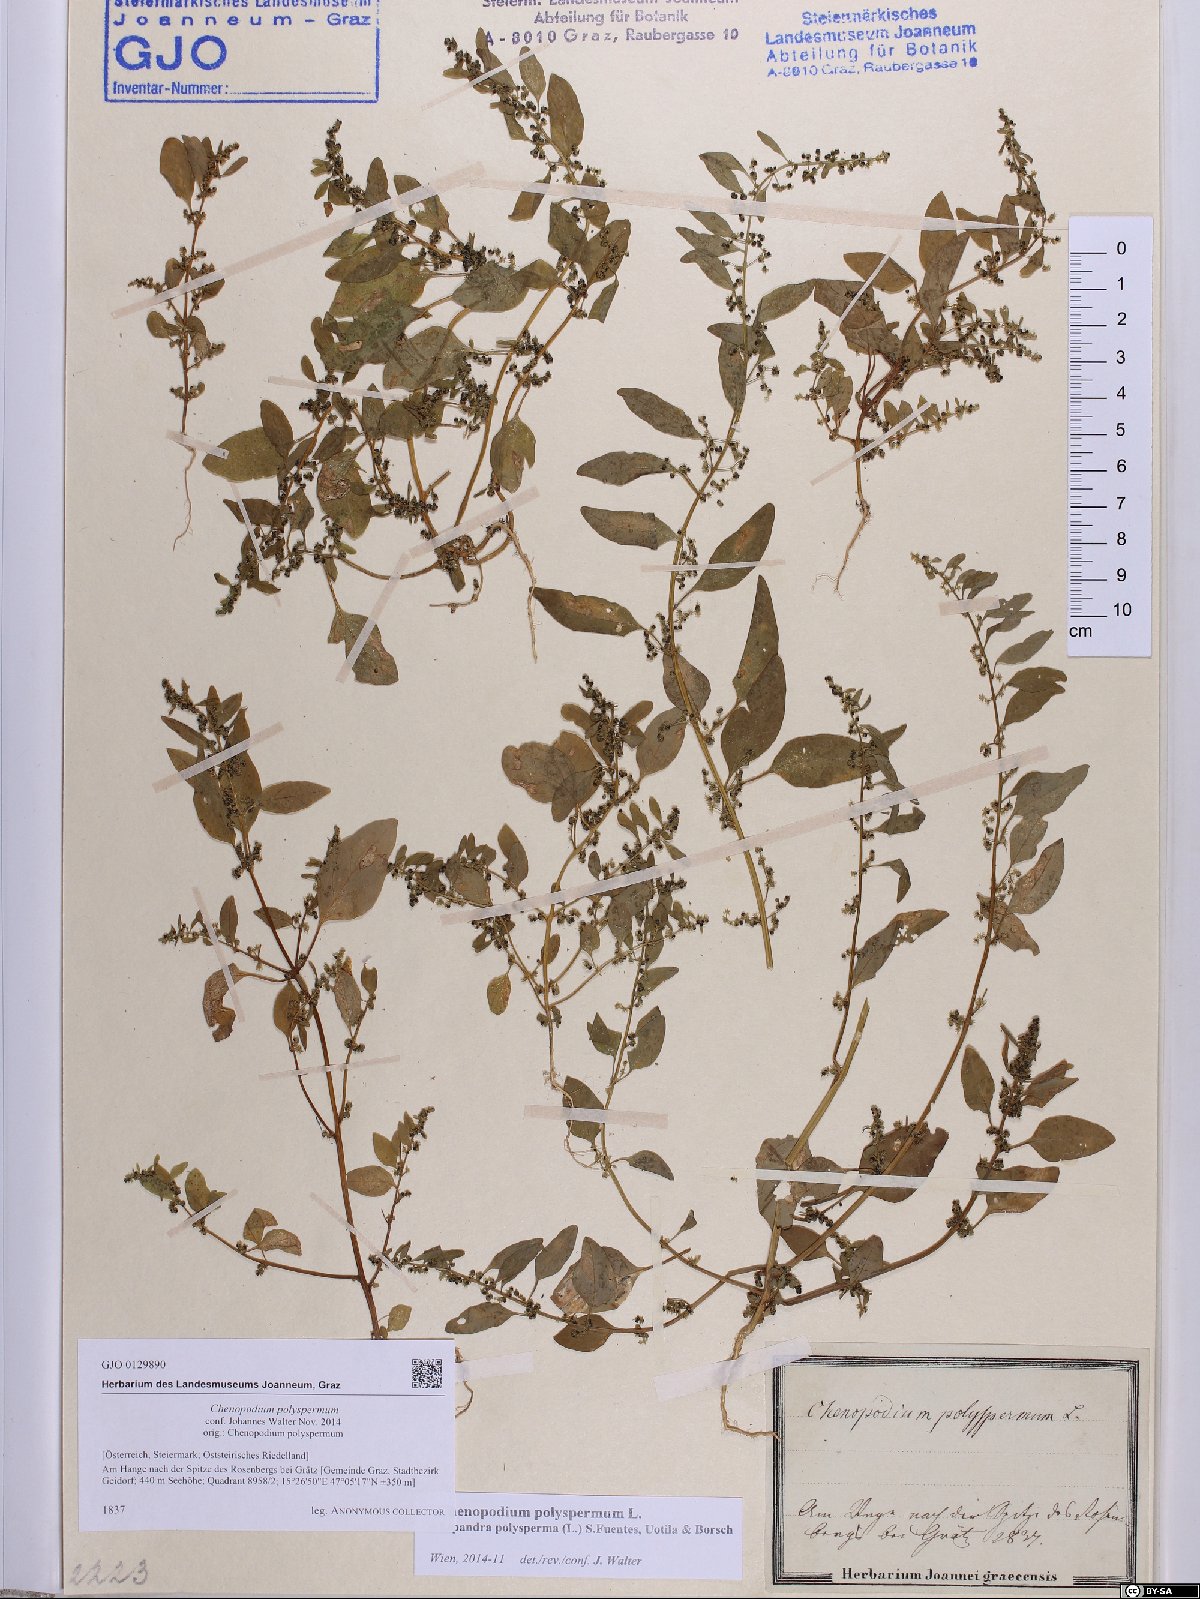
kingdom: Plantae
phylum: Tracheophyta
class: Magnoliopsida
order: Caryophyllales
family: Amaranthaceae
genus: Lipandra
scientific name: Lipandra polysperma
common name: Many-seed goosefoot
